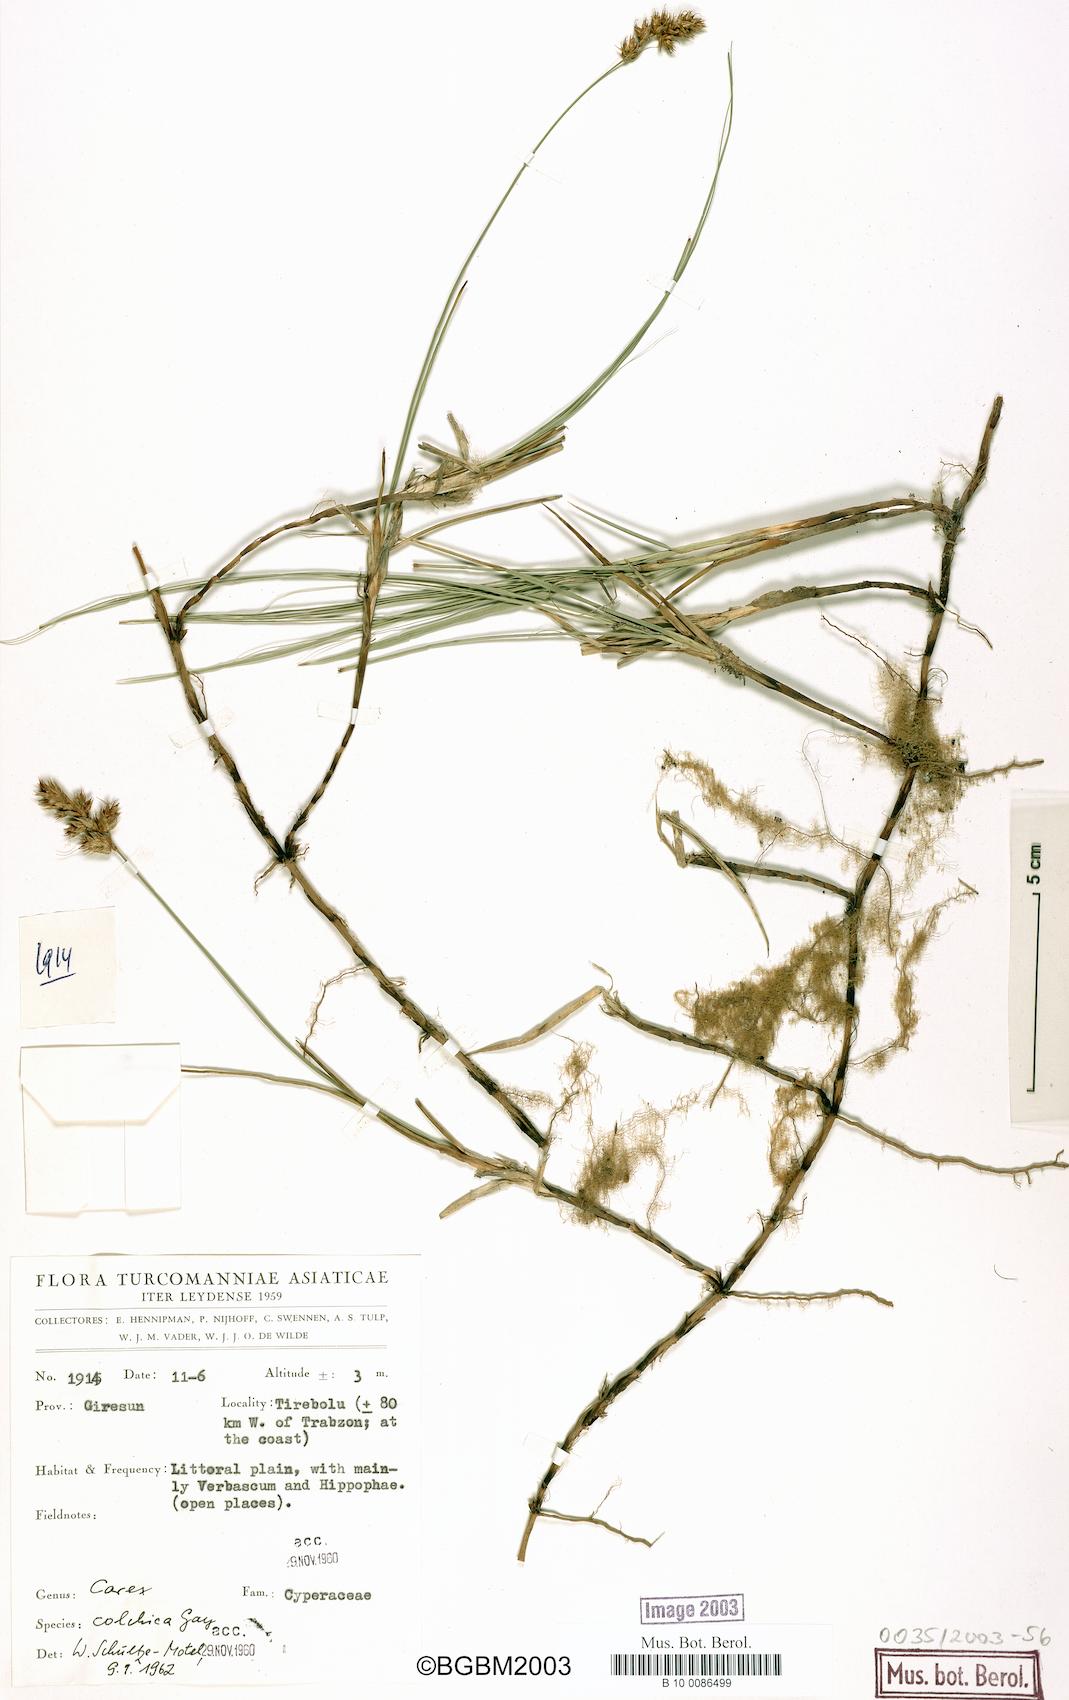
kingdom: Plantae
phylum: Tracheophyta
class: Liliopsida
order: Poales
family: Cyperaceae
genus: Carex
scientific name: Carex divisa
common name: Divided sedge
